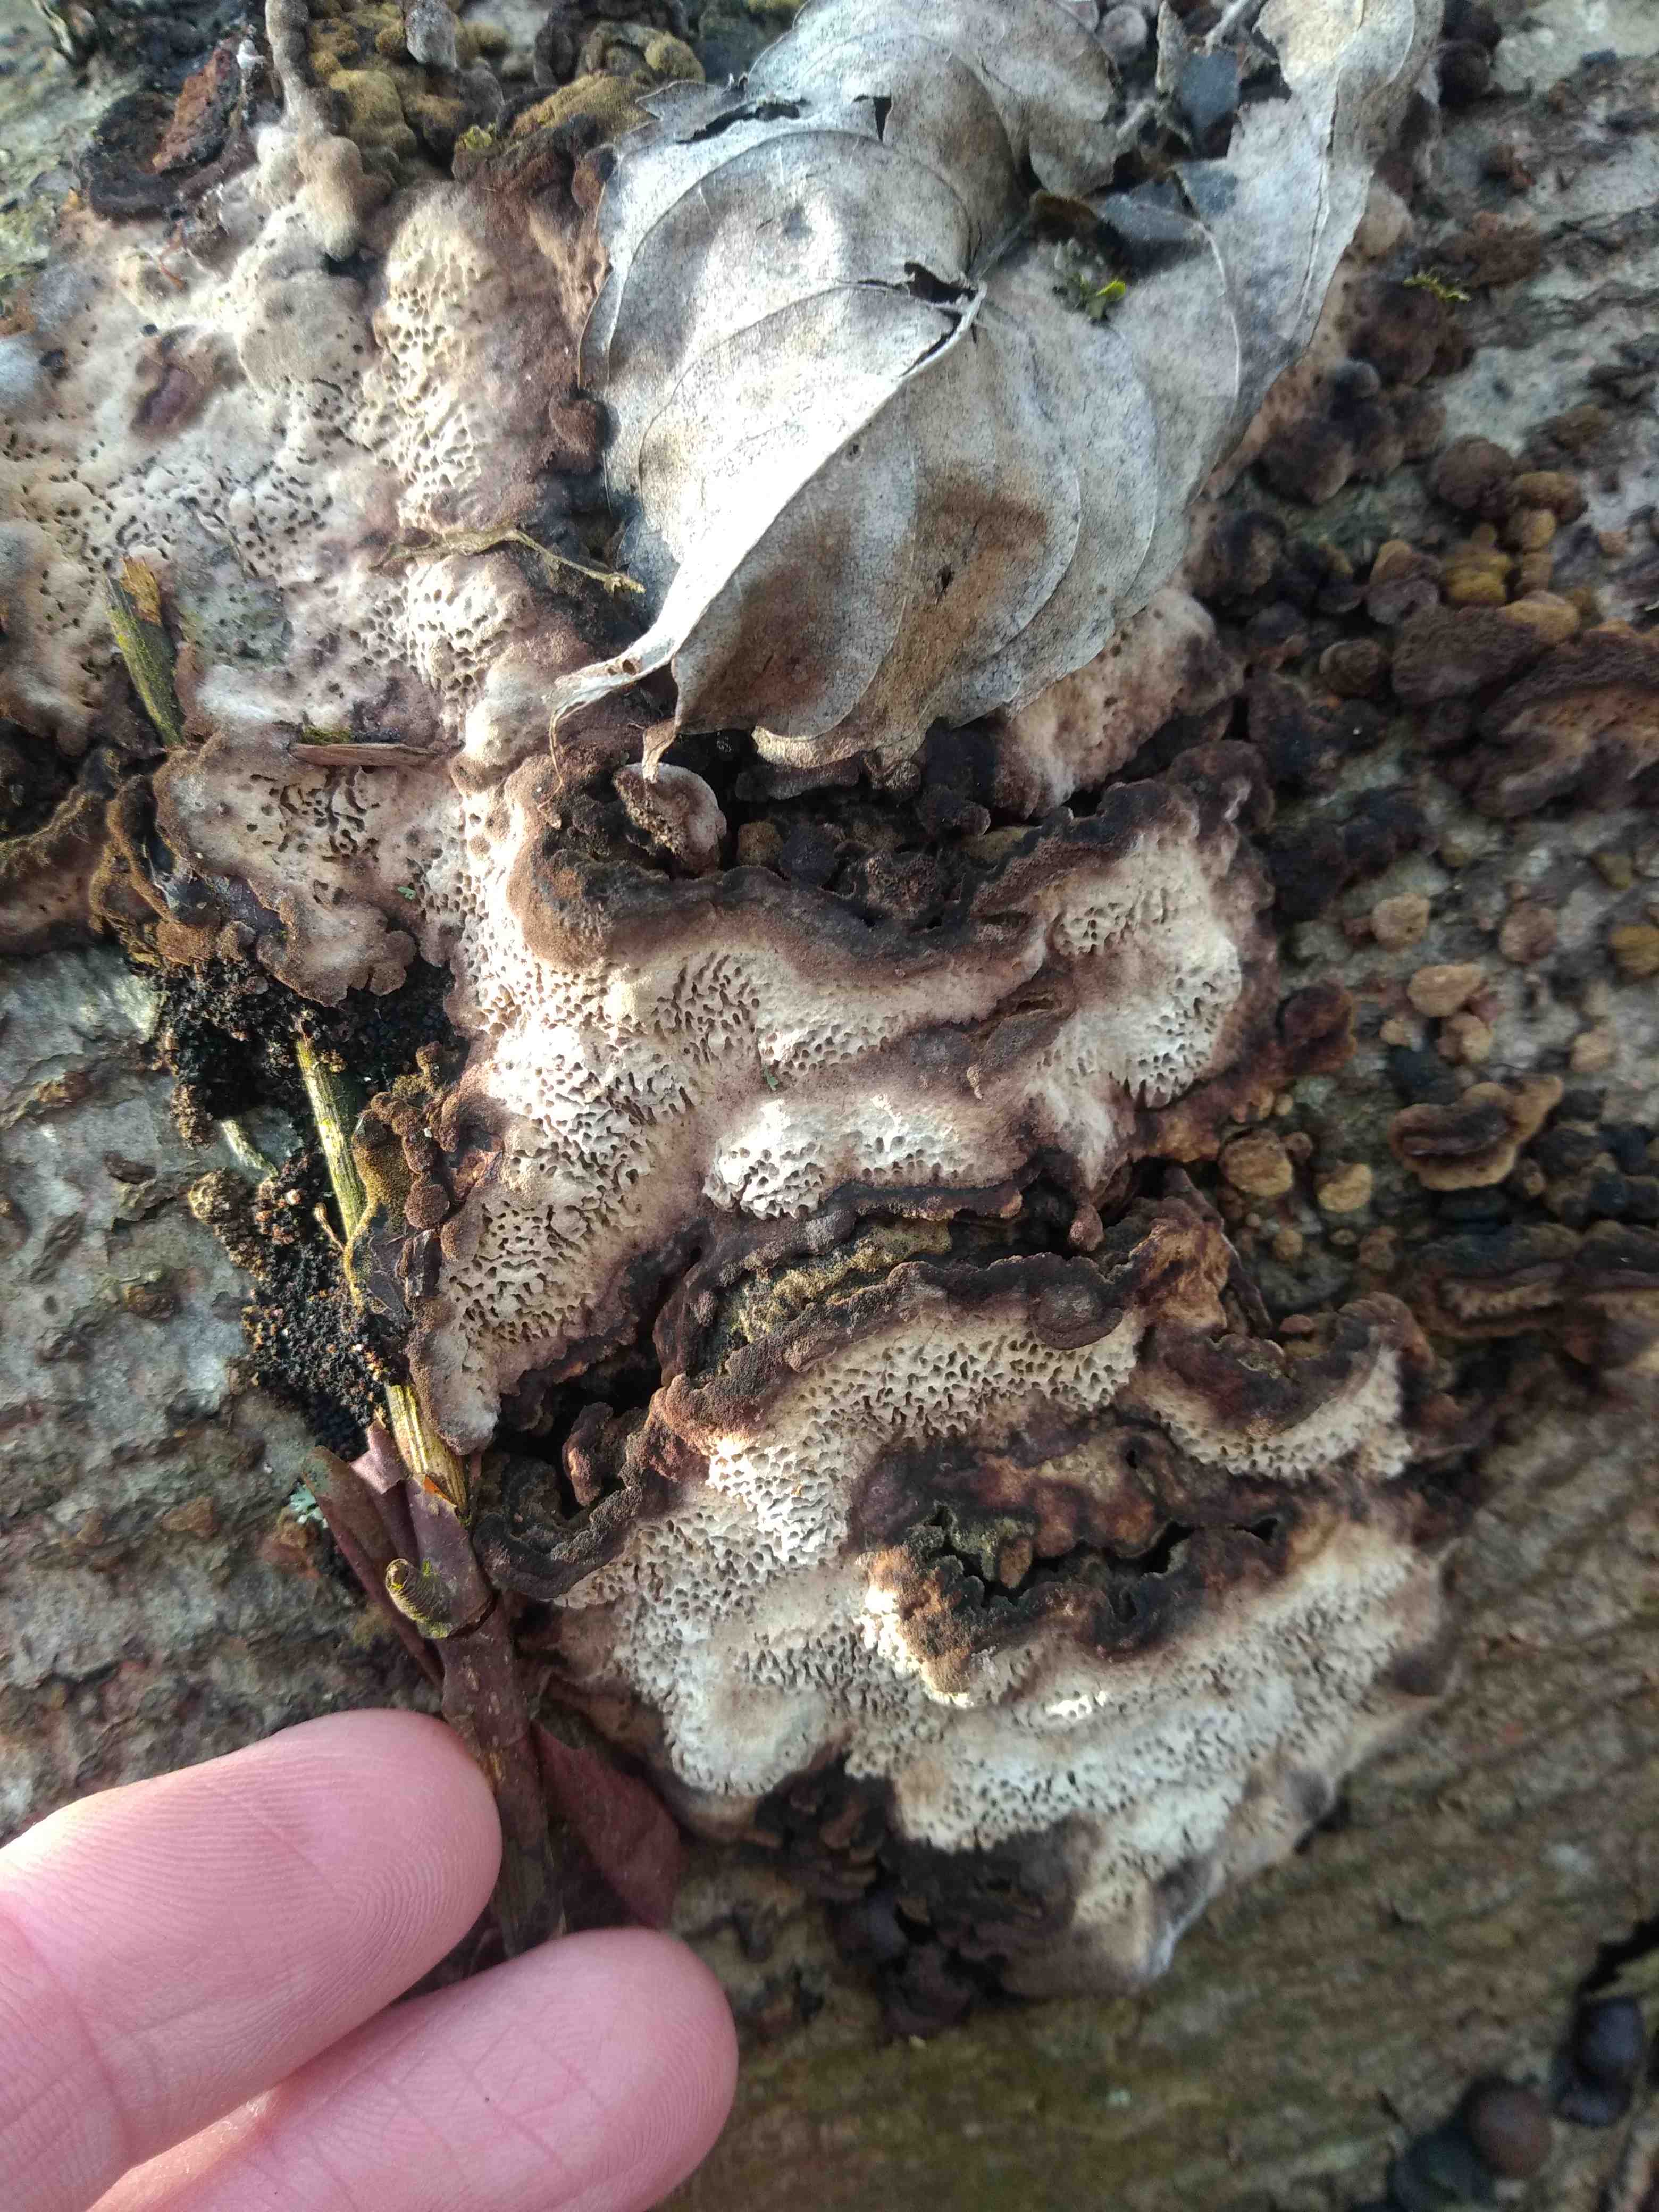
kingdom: Fungi
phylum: Basidiomycota
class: Agaricomycetes
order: Polyporales
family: Polyporaceae
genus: Podofomes
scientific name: Podofomes mollis
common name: blød begporesvamp
